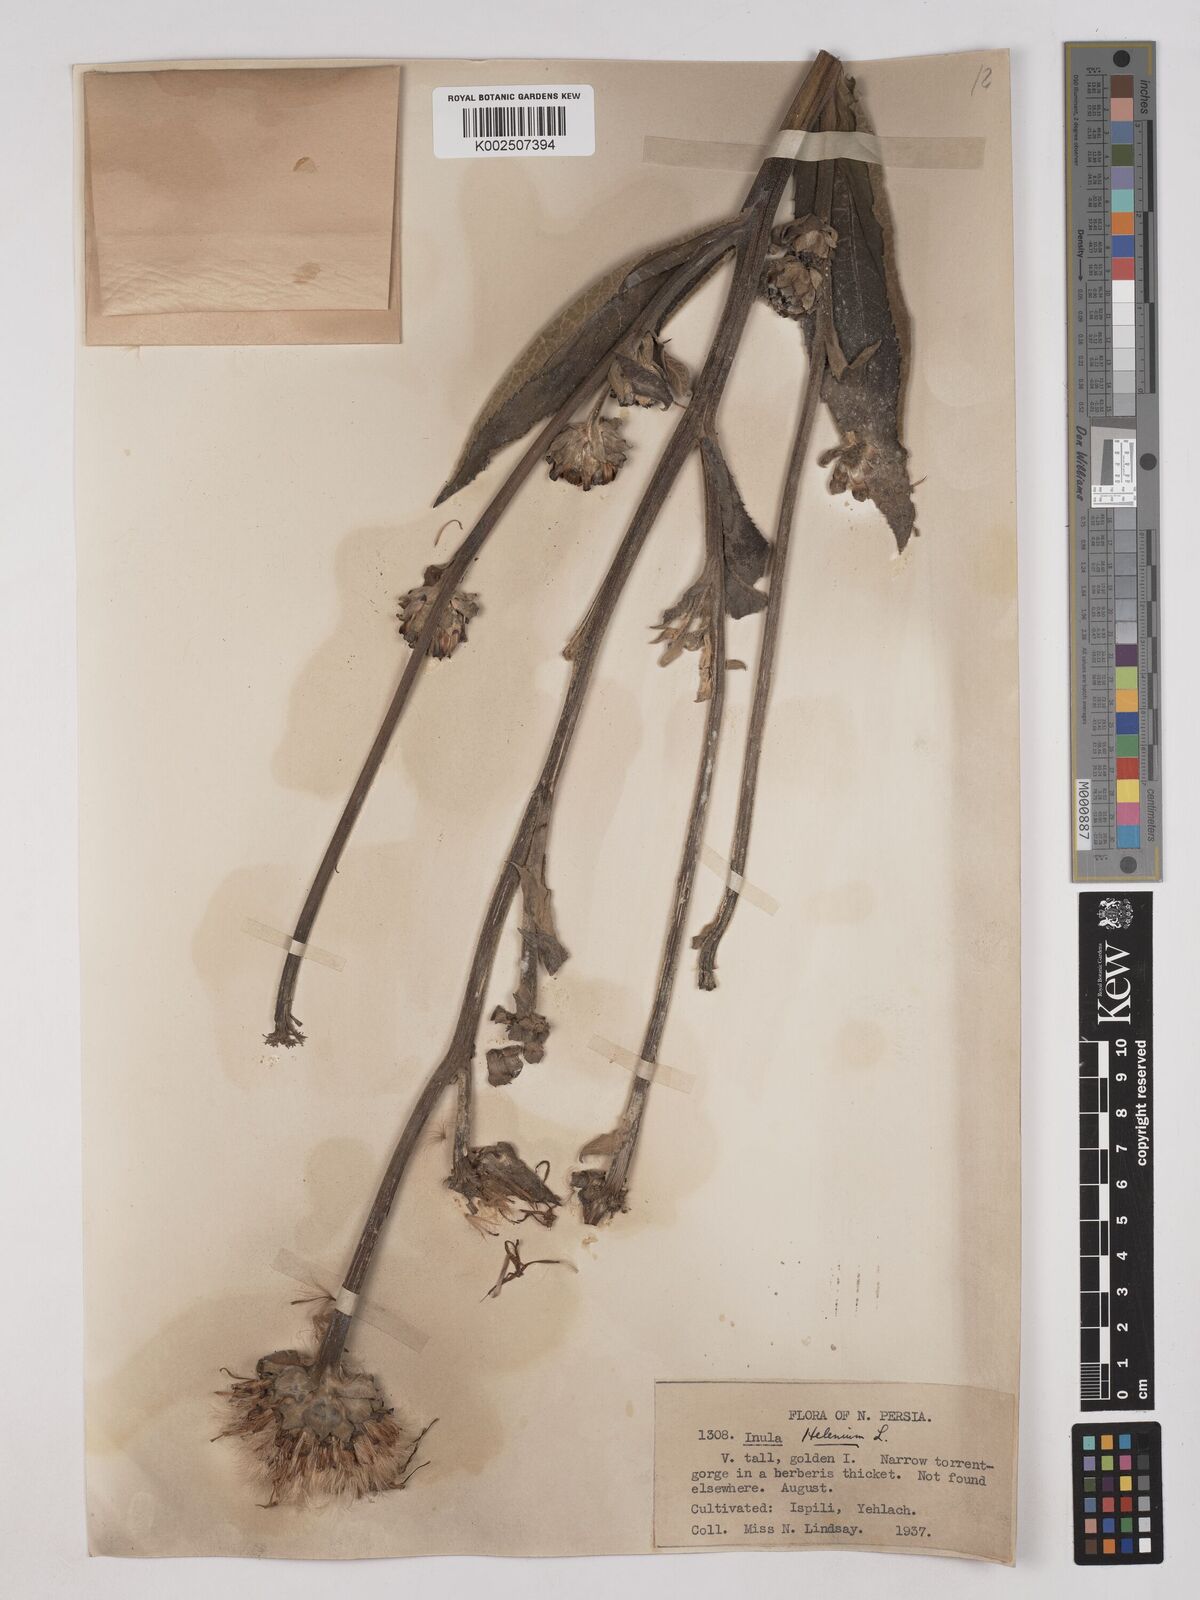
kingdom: Plantae
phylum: Tracheophyta
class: Magnoliopsida
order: Asterales
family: Asteraceae
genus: Inula
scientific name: Inula helenium
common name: Elecampane
